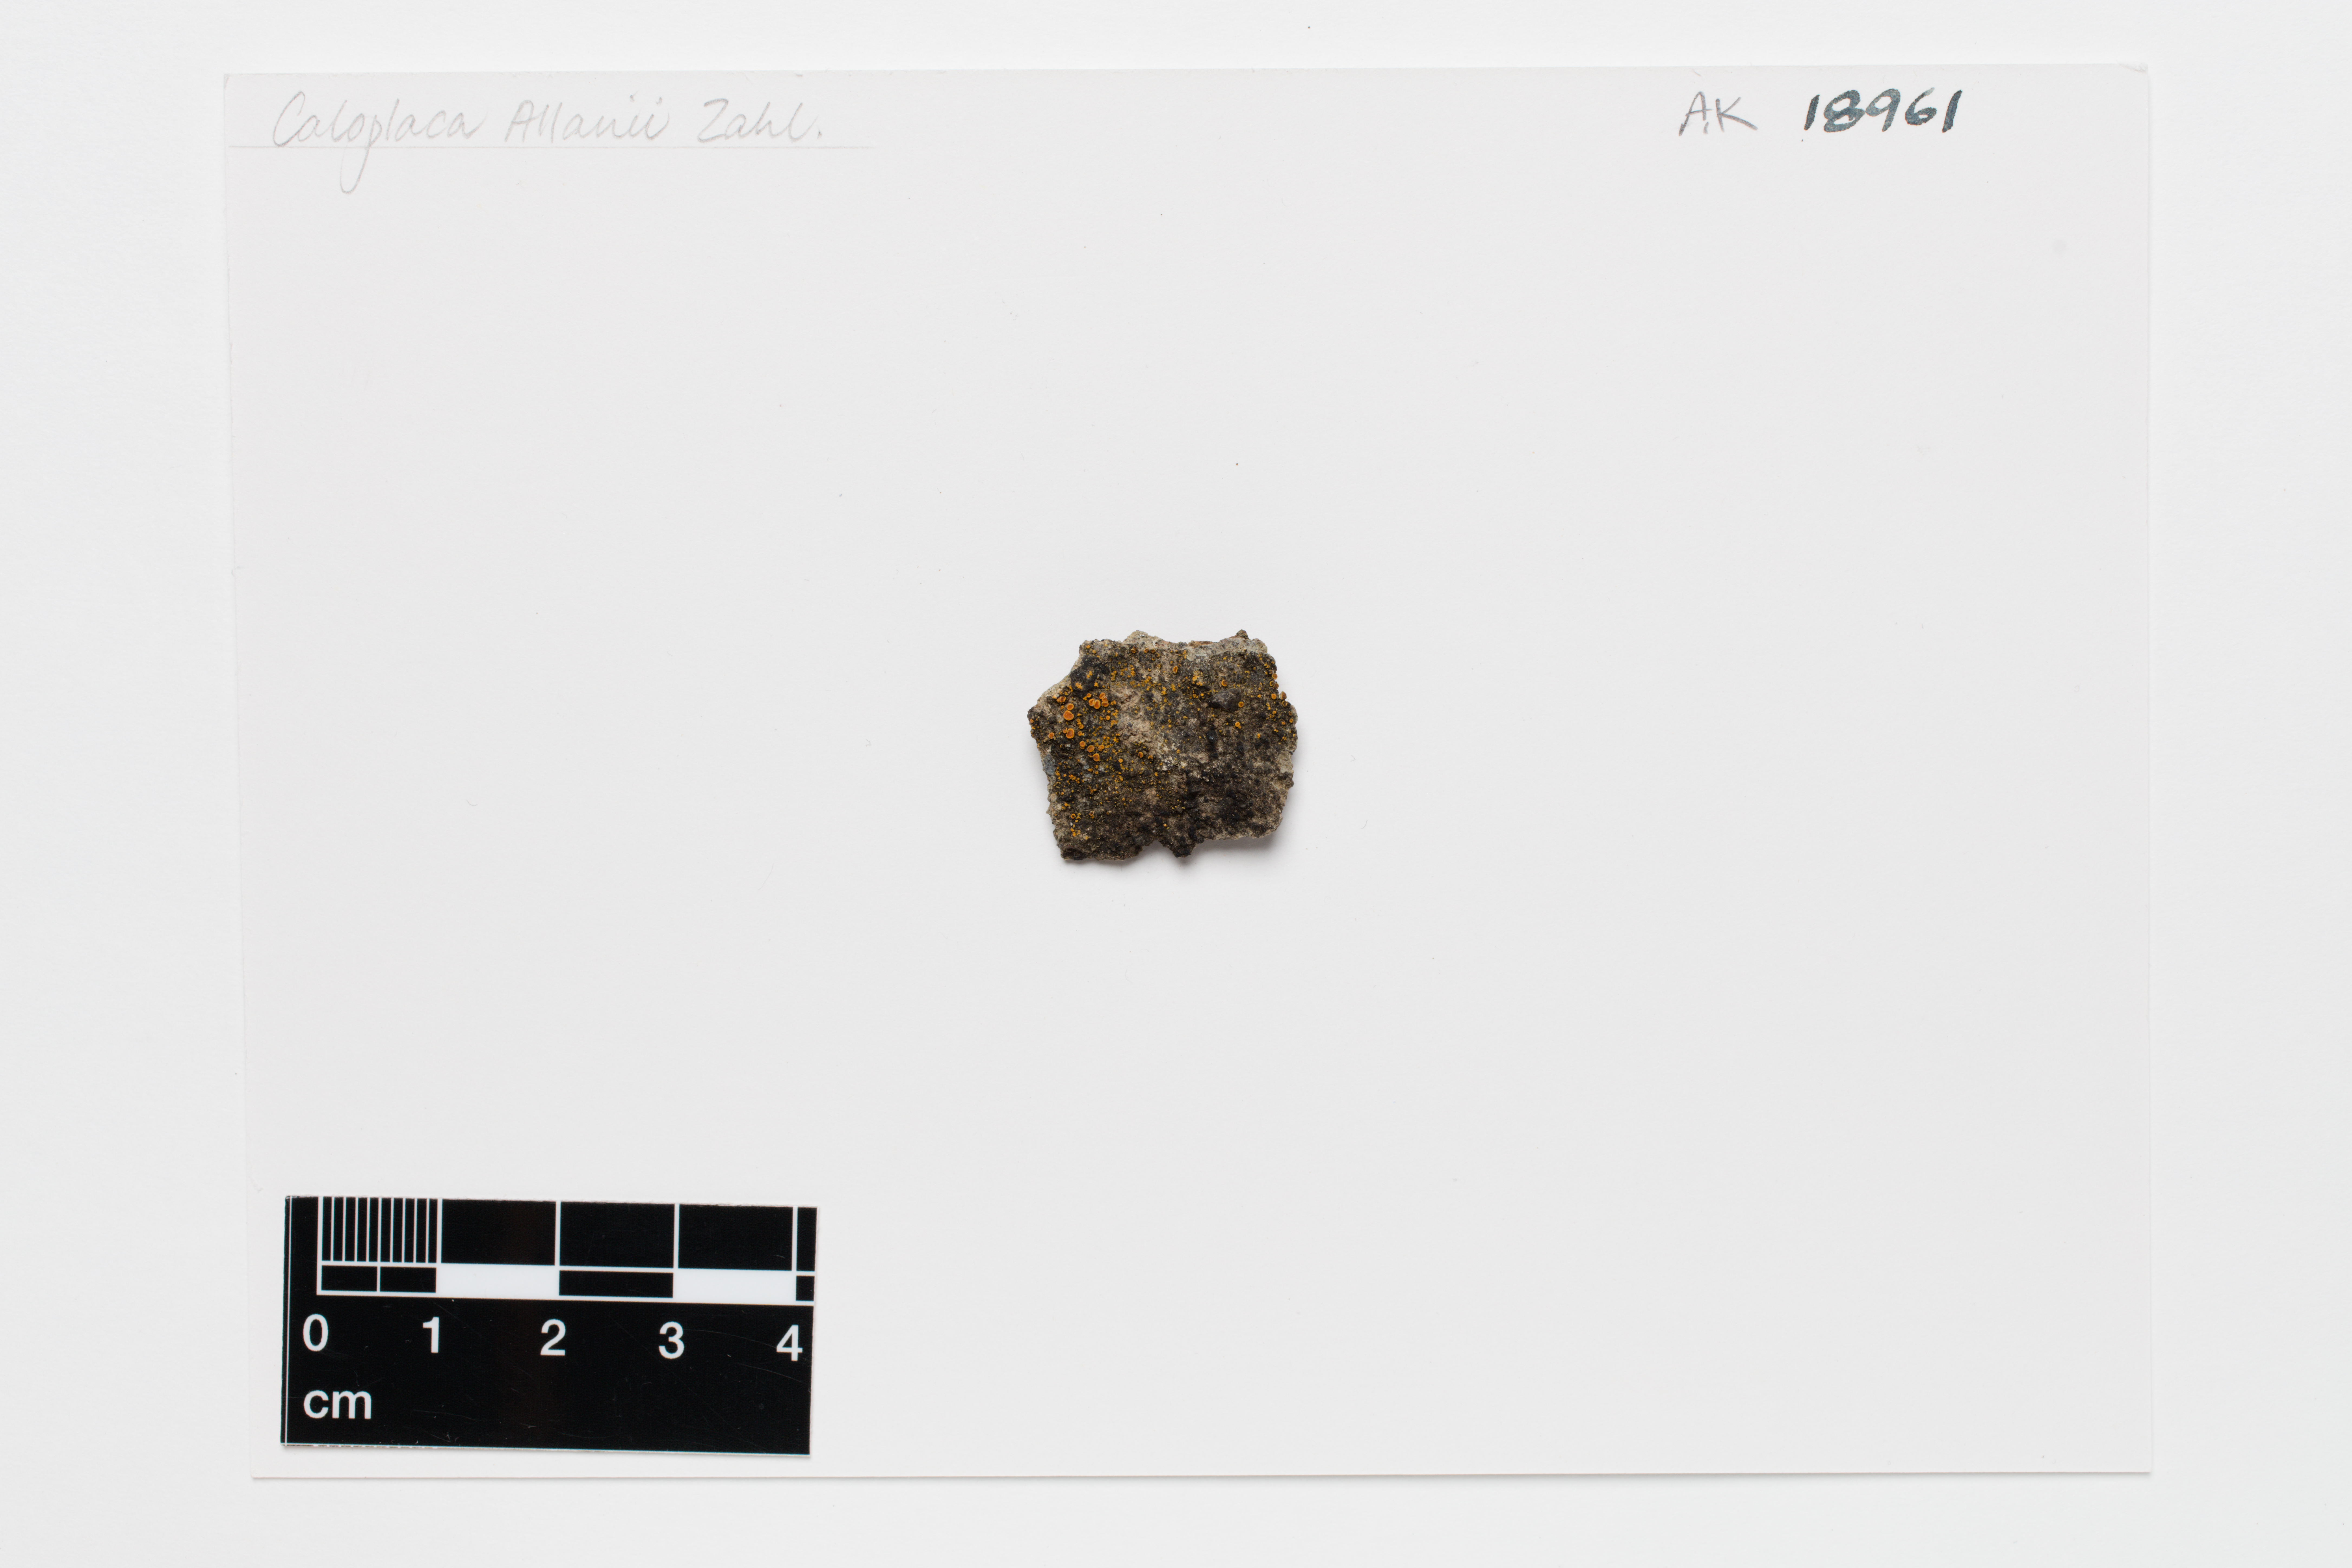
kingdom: Fungi
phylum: Ascomycota
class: Lecanoromycetes
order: Teloschistales
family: Teloschistaceae
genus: Caloplaca
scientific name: Caloplaca allanii
